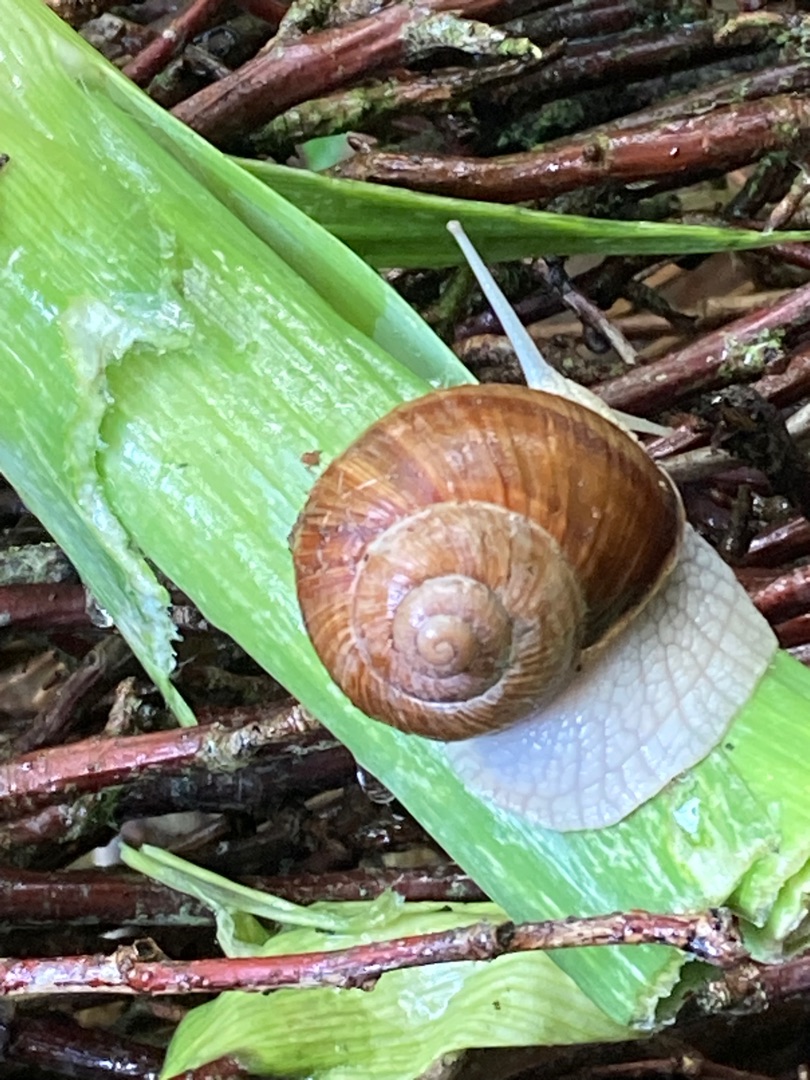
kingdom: Animalia
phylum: Mollusca
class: Gastropoda
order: Stylommatophora
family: Helicidae
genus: Helix
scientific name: Helix pomatia
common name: Vinbjergsnegl
